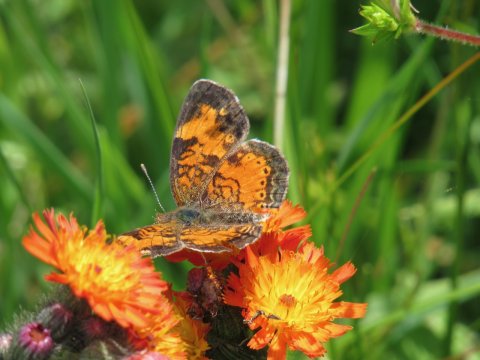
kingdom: Animalia
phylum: Arthropoda
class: Insecta
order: Lepidoptera
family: Nymphalidae
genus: Phyciodes
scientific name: Phyciodes tharos
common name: Pearl Crescent
